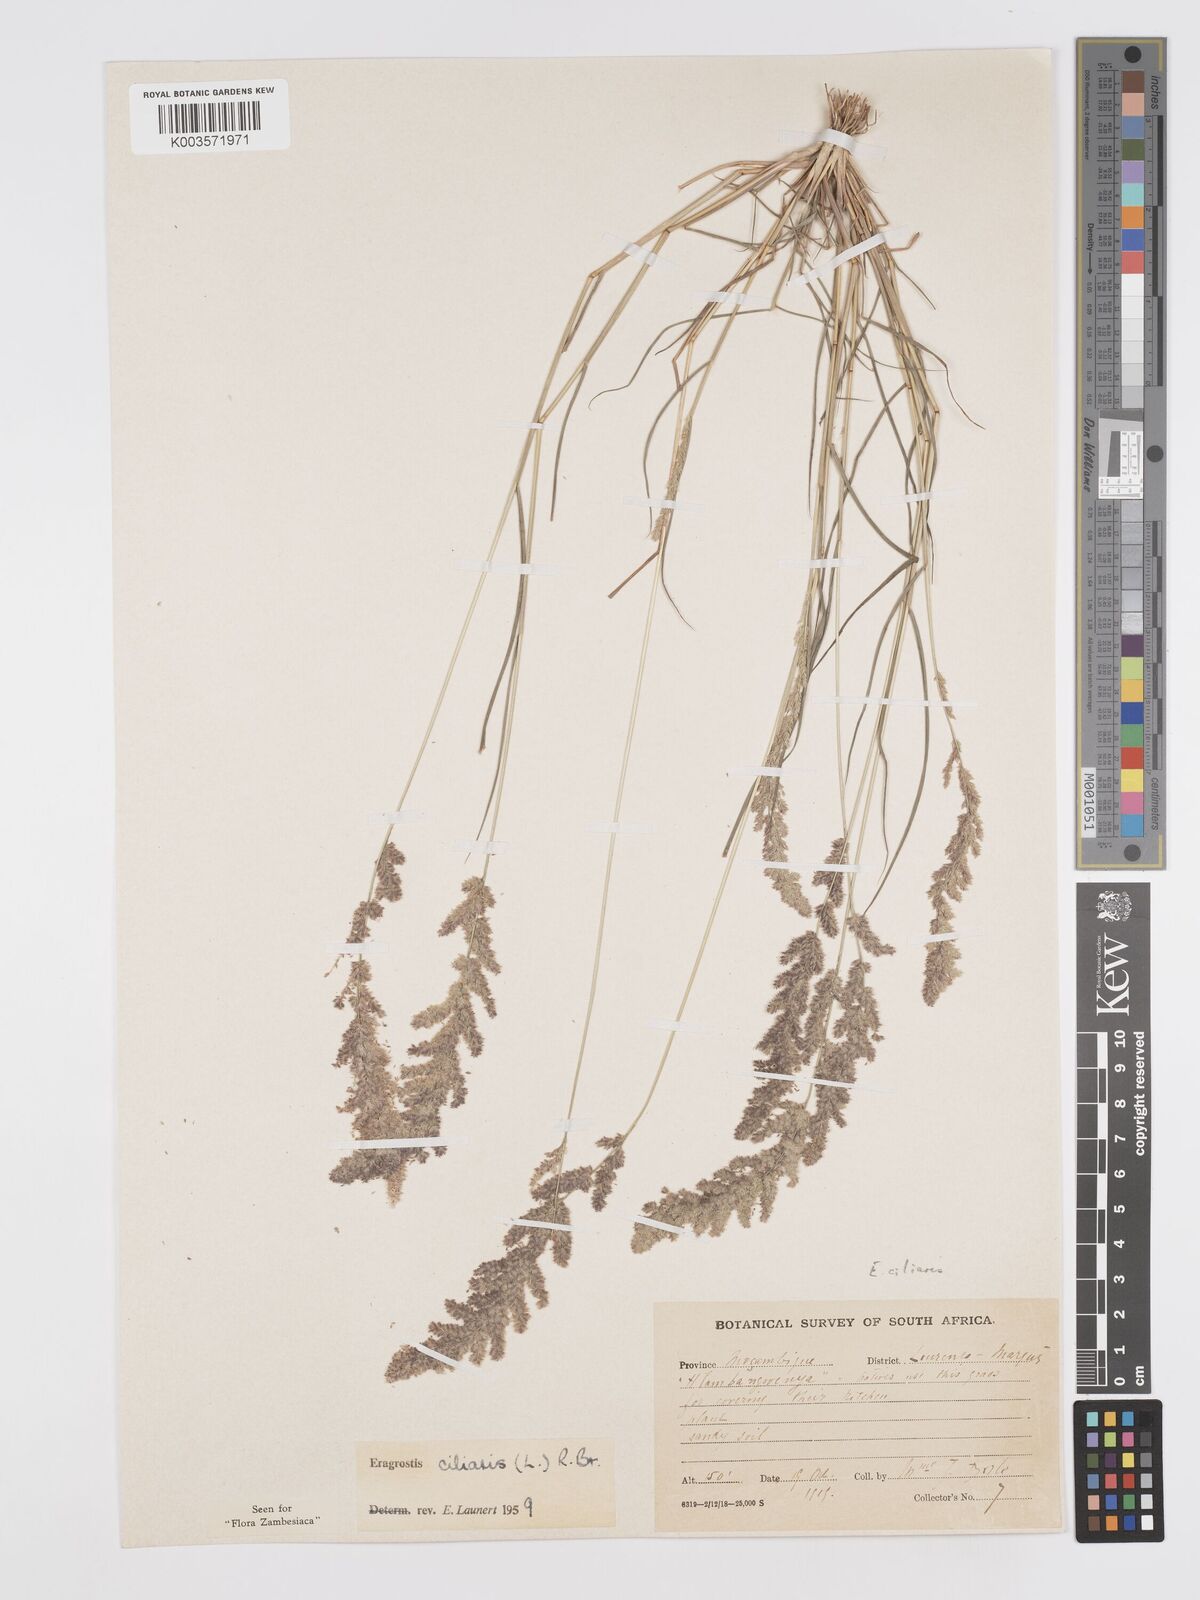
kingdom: Plantae
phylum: Tracheophyta
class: Liliopsida
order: Poales
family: Poaceae
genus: Eragrostis
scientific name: Eragrostis ciliaris
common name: Gophertail lovegrass
